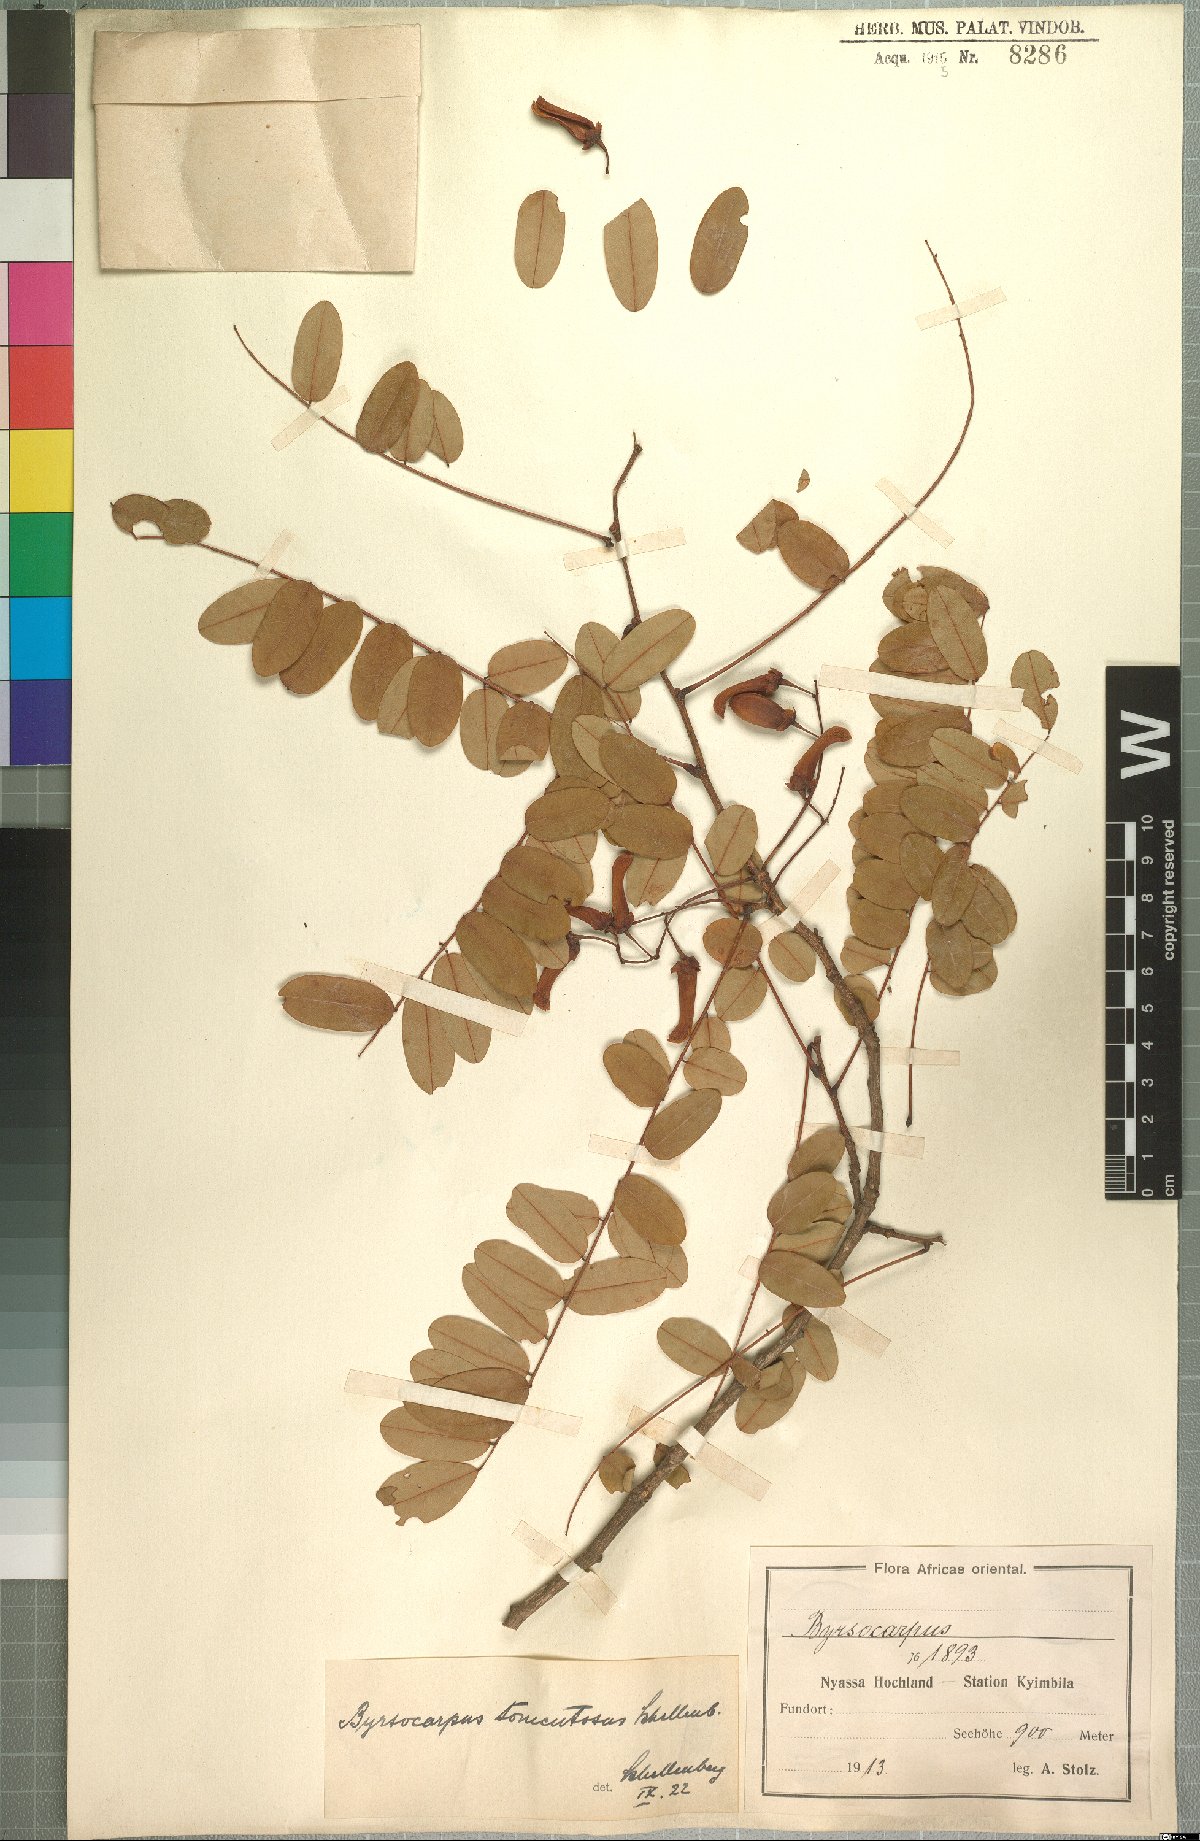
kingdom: Plantae
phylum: Tracheophyta
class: Magnoliopsida
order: Oxalidales
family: Connaraceae
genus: Rourea
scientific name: Rourea orientalis
